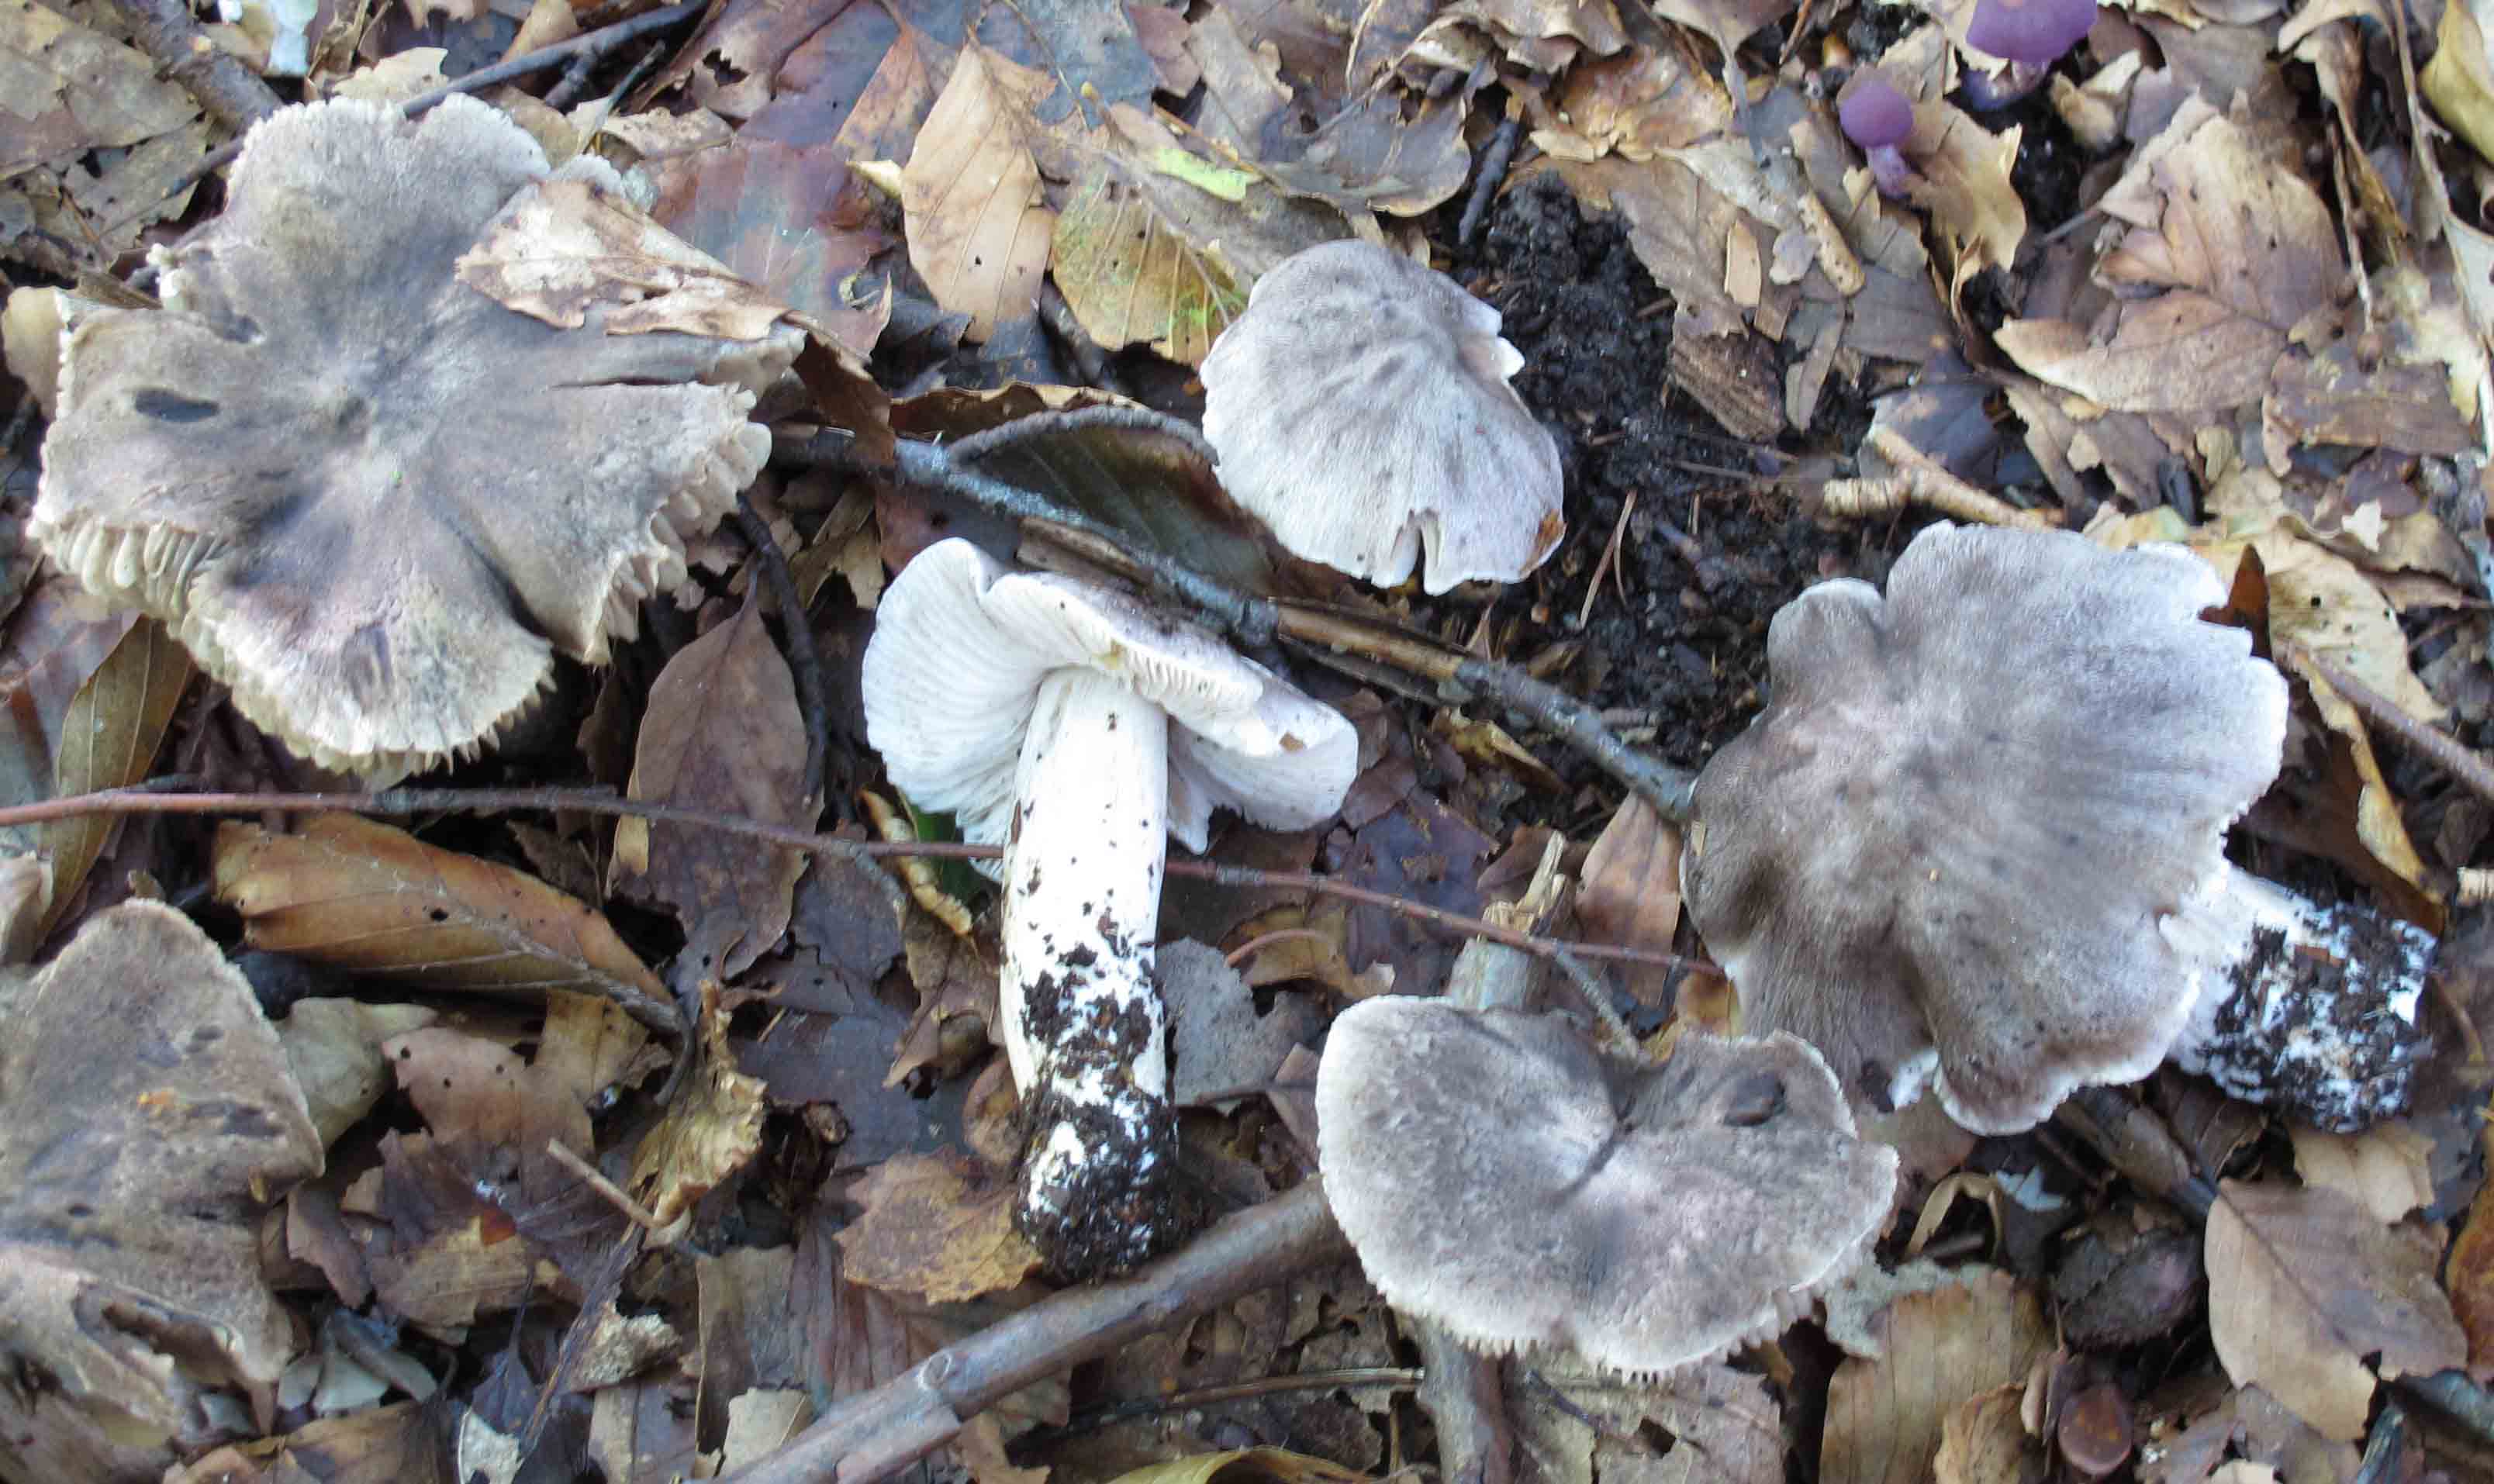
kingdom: Fungi
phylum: Basidiomycota
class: Agaricomycetes
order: Agaricales
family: Tricholomataceae
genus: Tricholoma
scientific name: Tricholoma portentosum
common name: grå ridderhat
